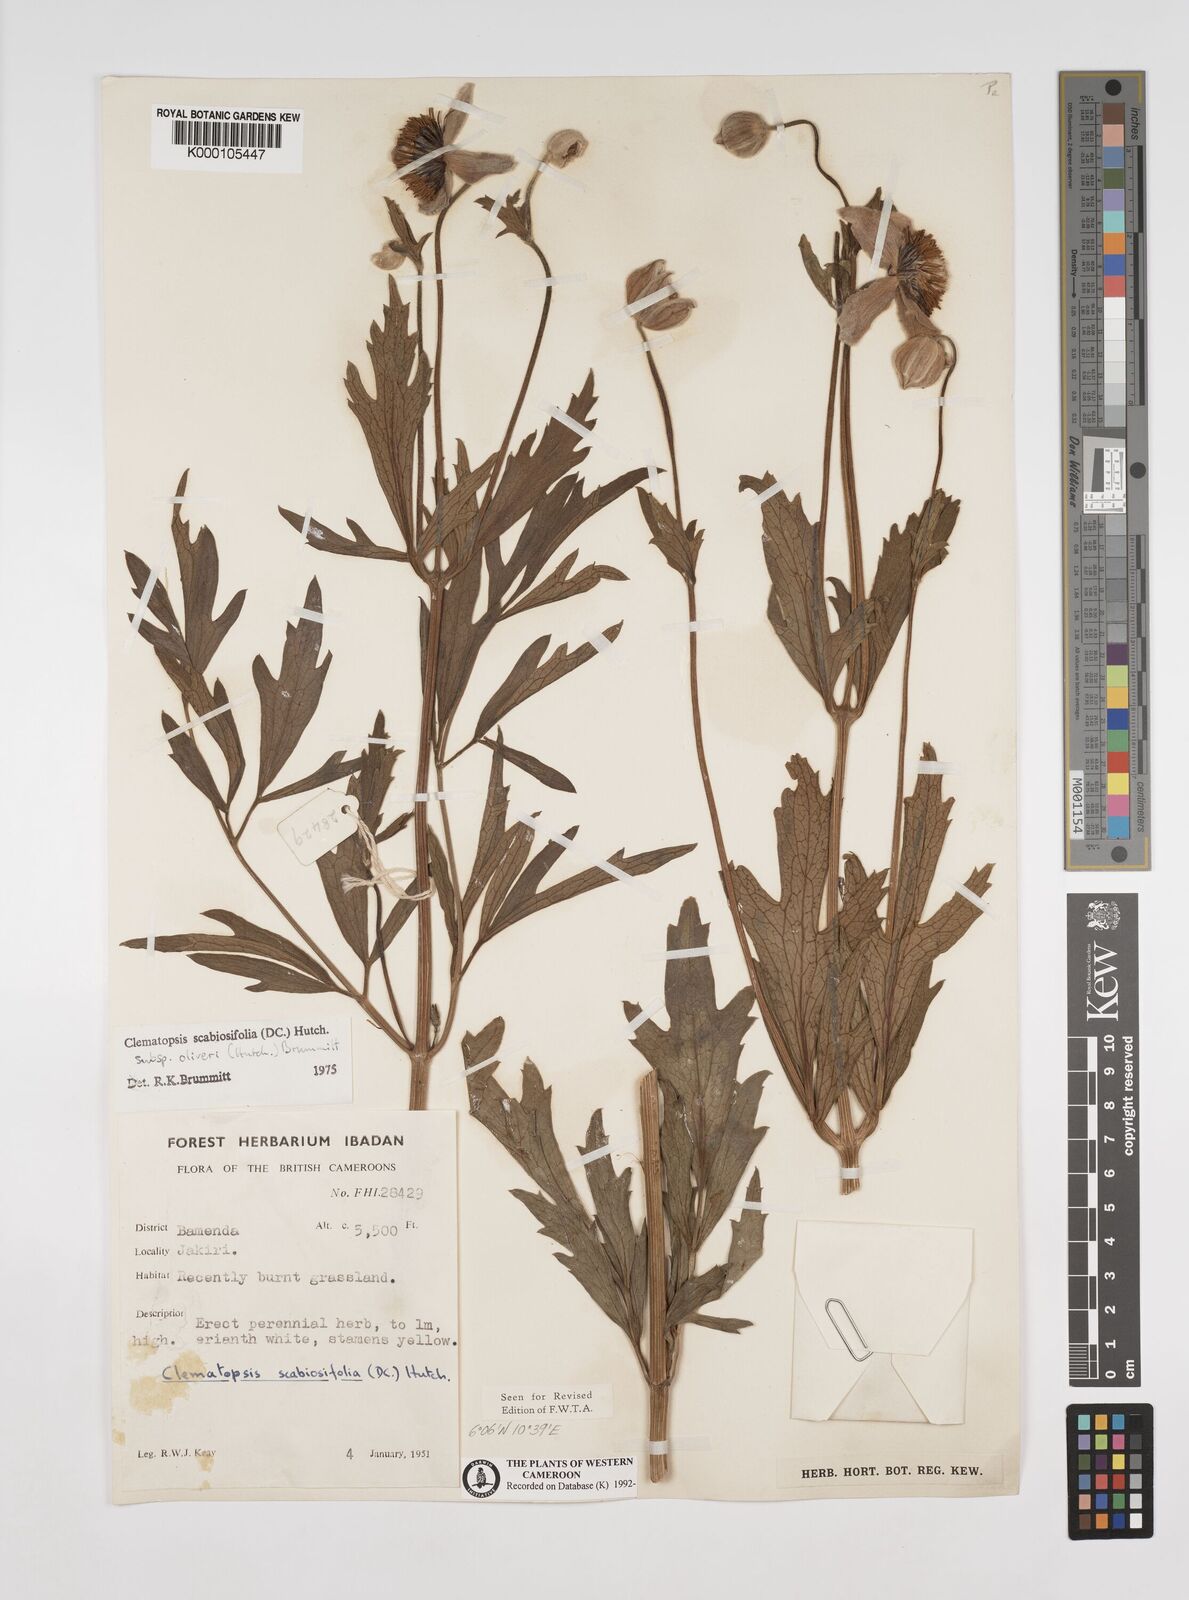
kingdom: Plantae
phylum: Tracheophyta
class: Magnoliopsida
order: Ranunculales
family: Ranunculaceae
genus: Clematis
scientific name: Clematis villosa
